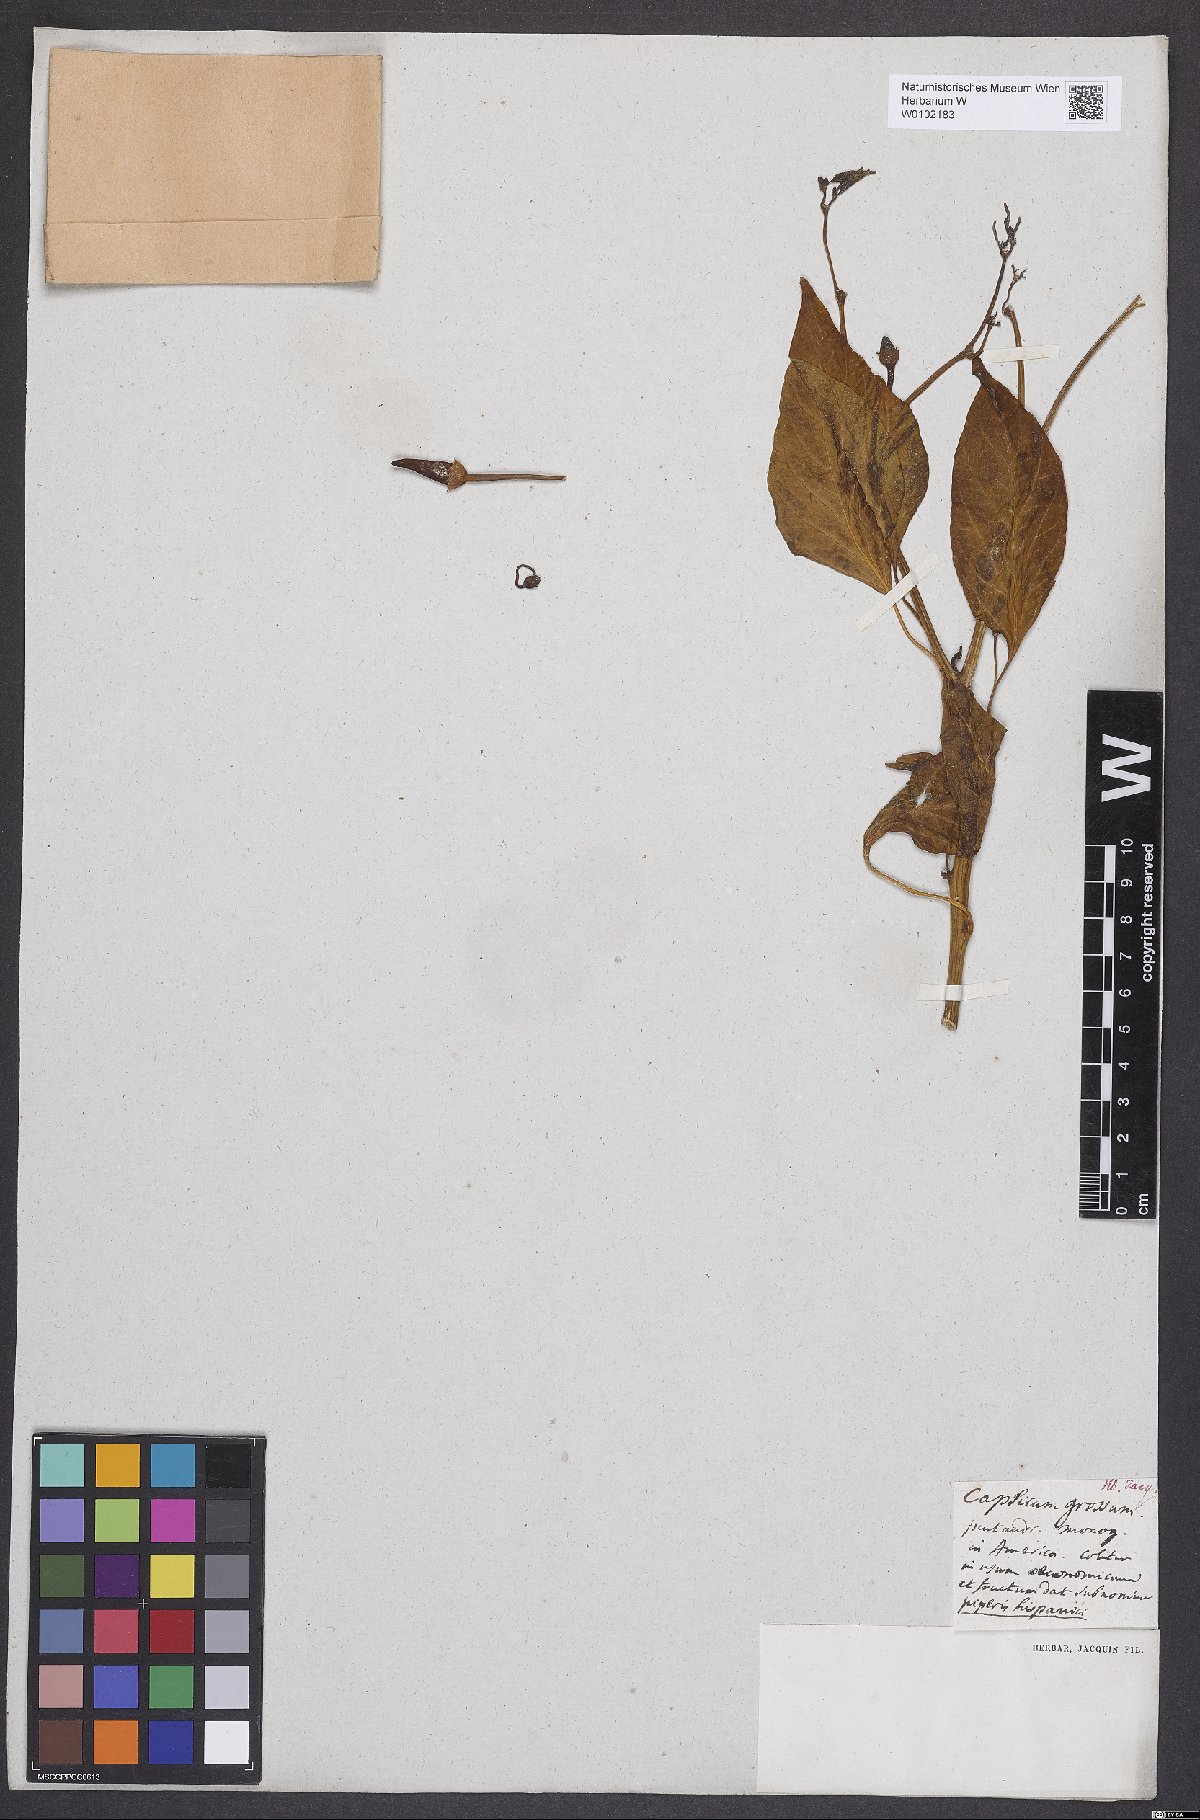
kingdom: Plantae
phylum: Tracheophyta
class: Magnoliopsida
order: Solanales
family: Solanaceae
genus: Capsicum
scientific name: Capsicum annuum
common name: Sweet pepper
